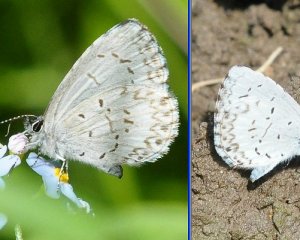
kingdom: Animalia
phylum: Arthropoda
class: Insecta
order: Lepidoptera
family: Lycaenidae
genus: Cyaniris
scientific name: Cyaniris neglecta
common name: Summer Azure
